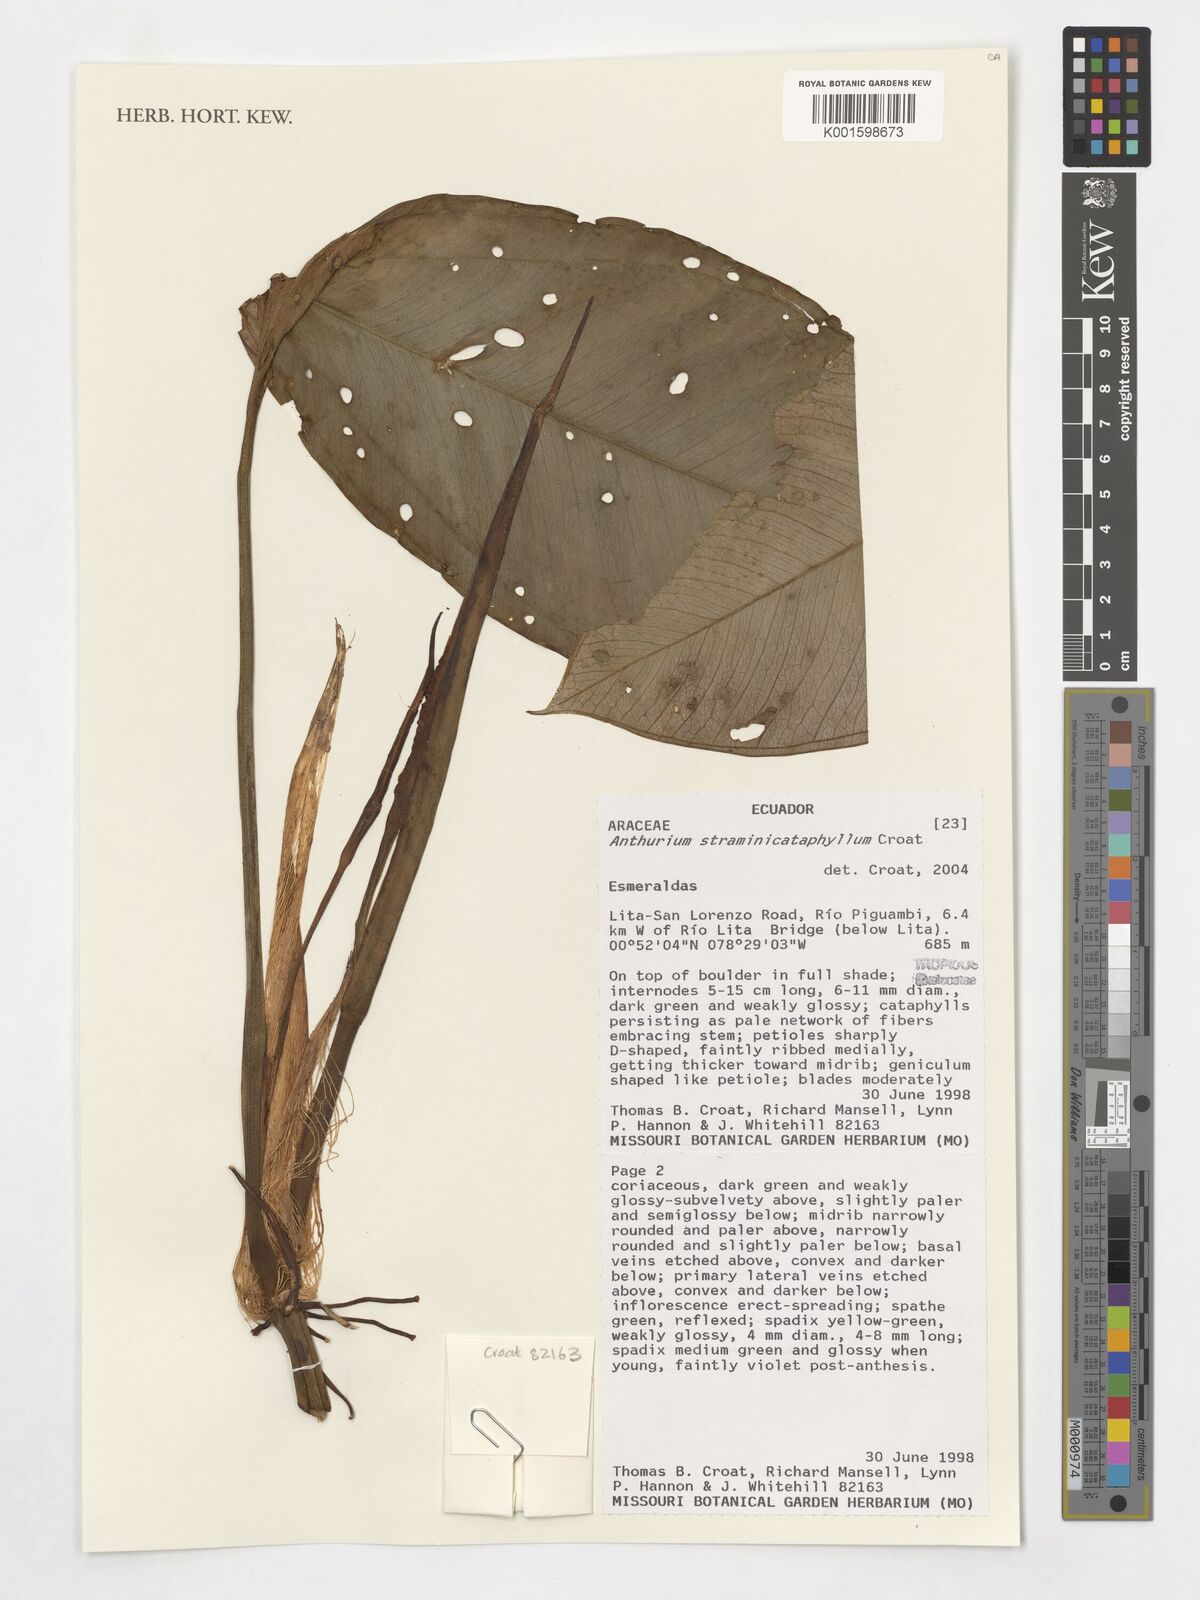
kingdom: Plantae
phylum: Tracheophyta
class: Liliopsida
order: Alismatales
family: Araceae
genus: Anthurium
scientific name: Anthurium
